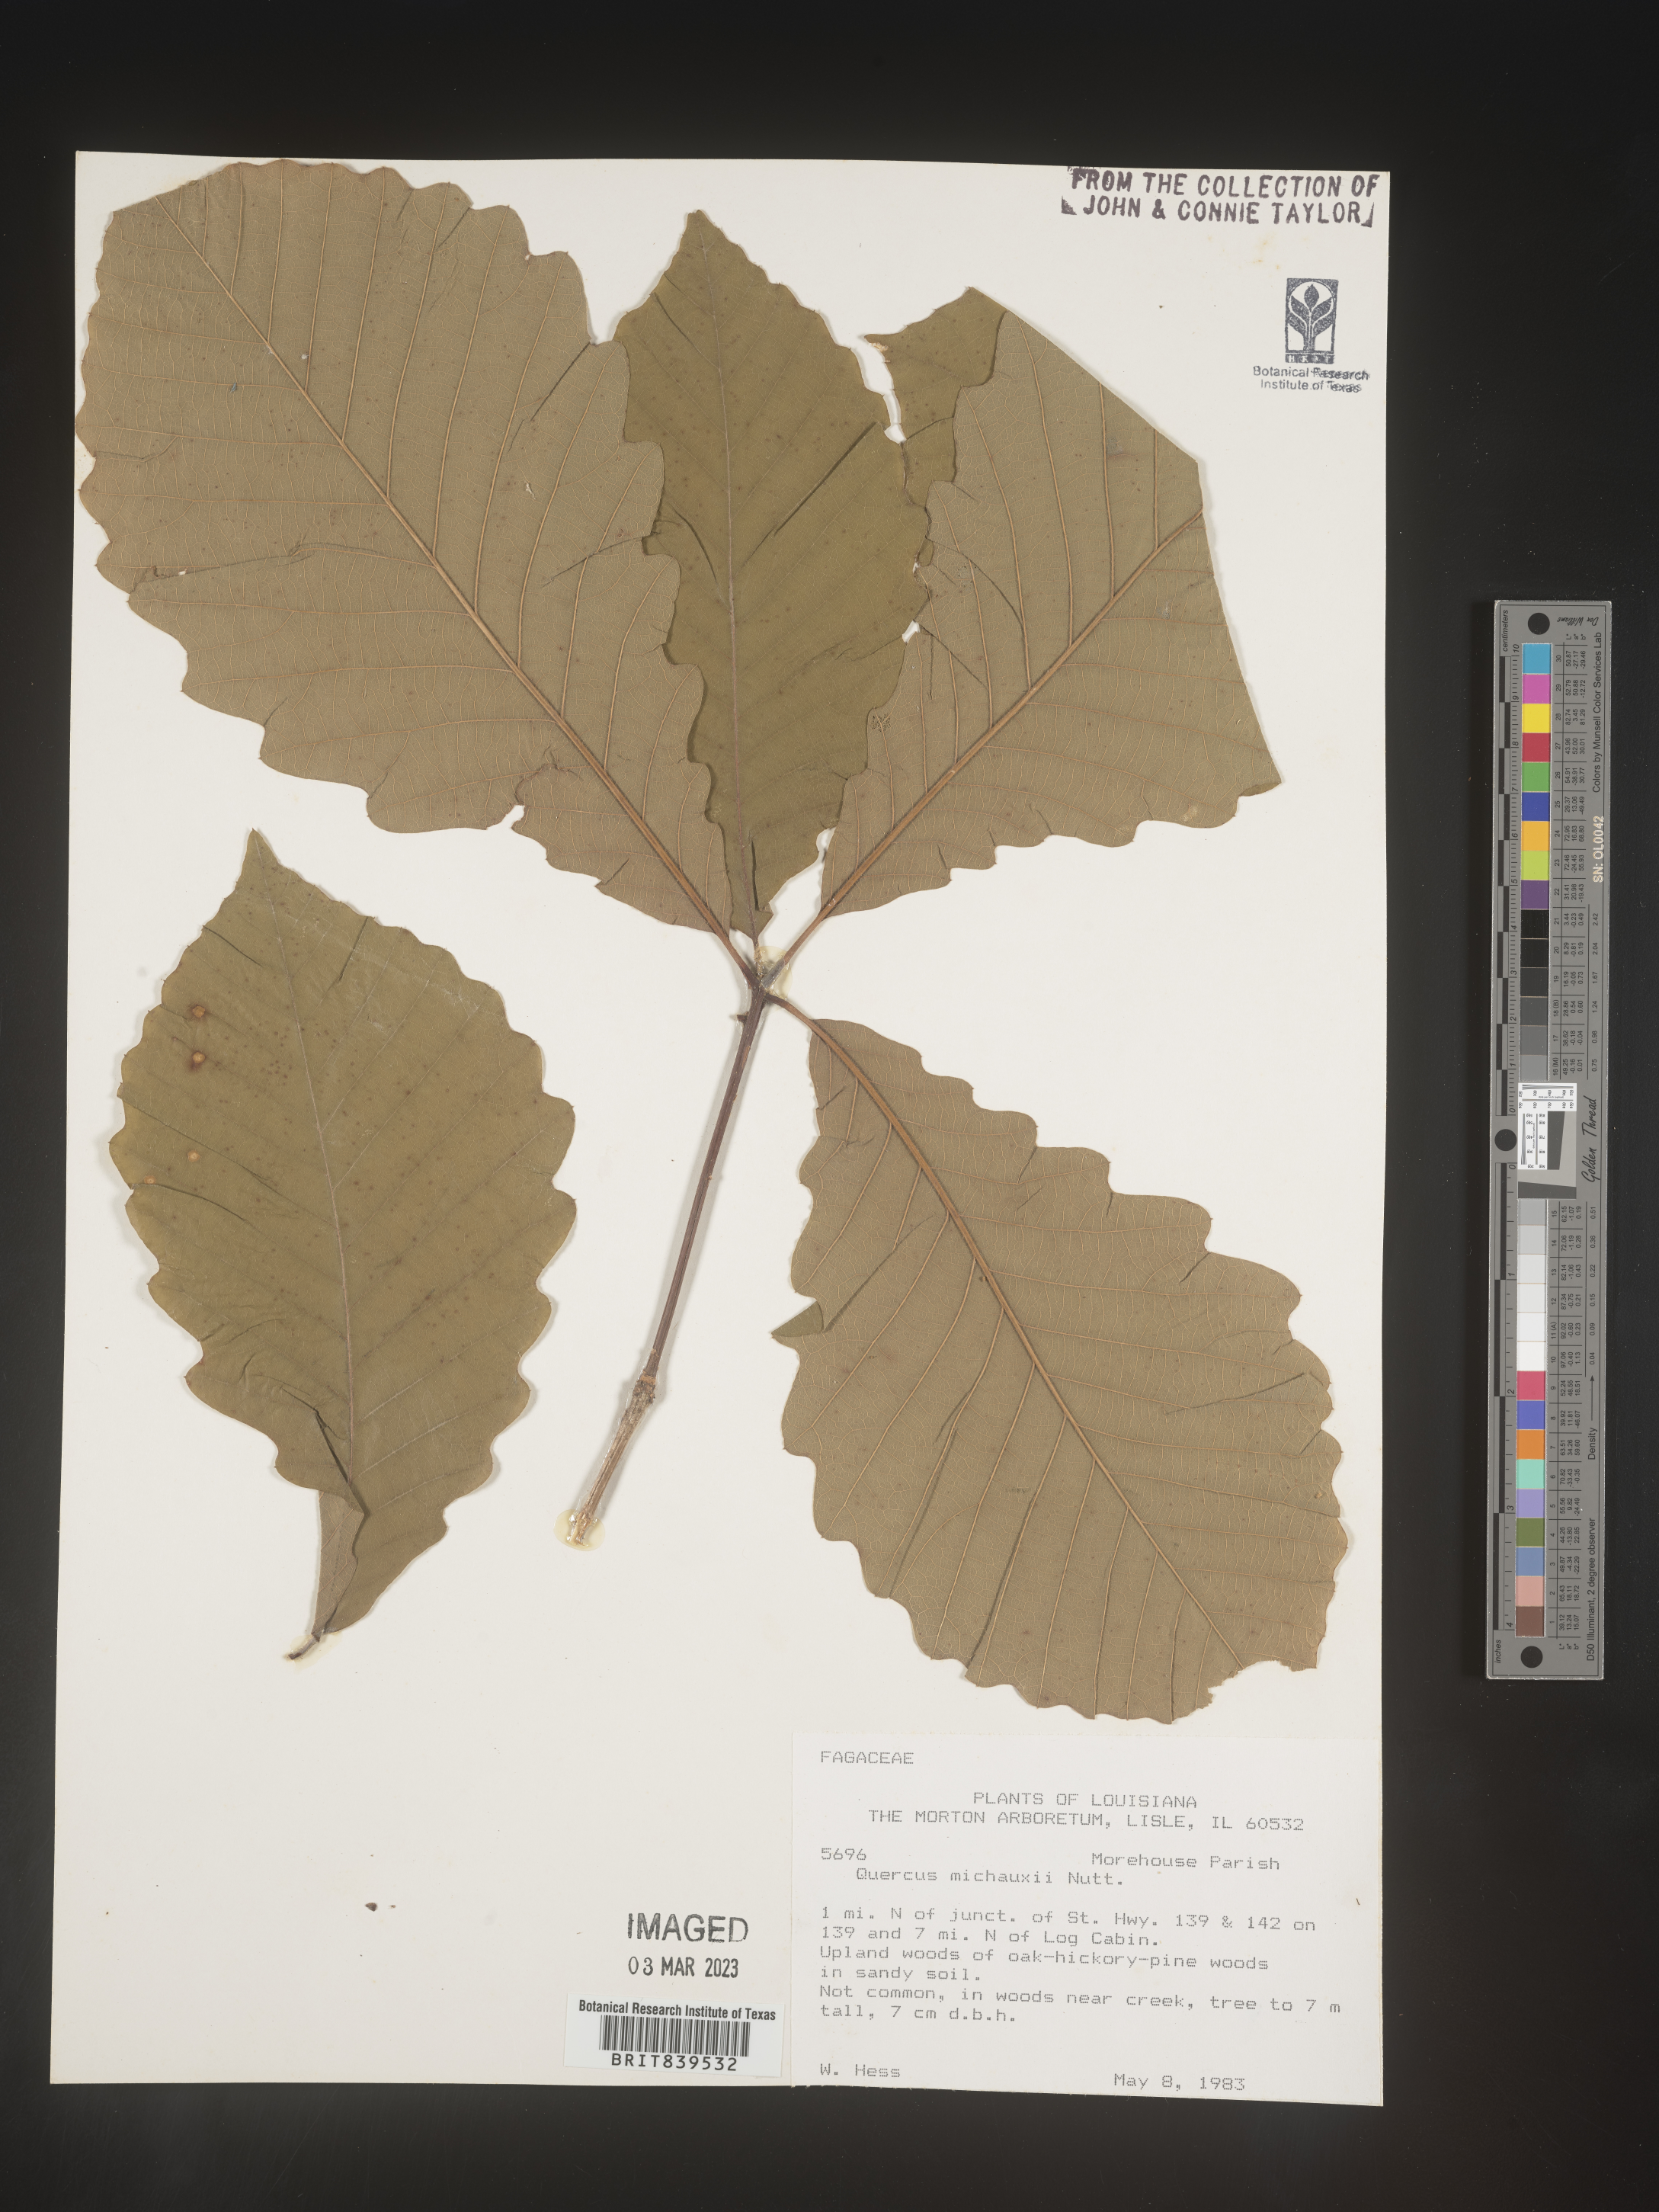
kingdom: Plantae
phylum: Tracheophyta
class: Magnoliopsida
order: Fagales
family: Fagaceae
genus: Quercus
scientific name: Quercus michauxii
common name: Swamp chestnut oak
